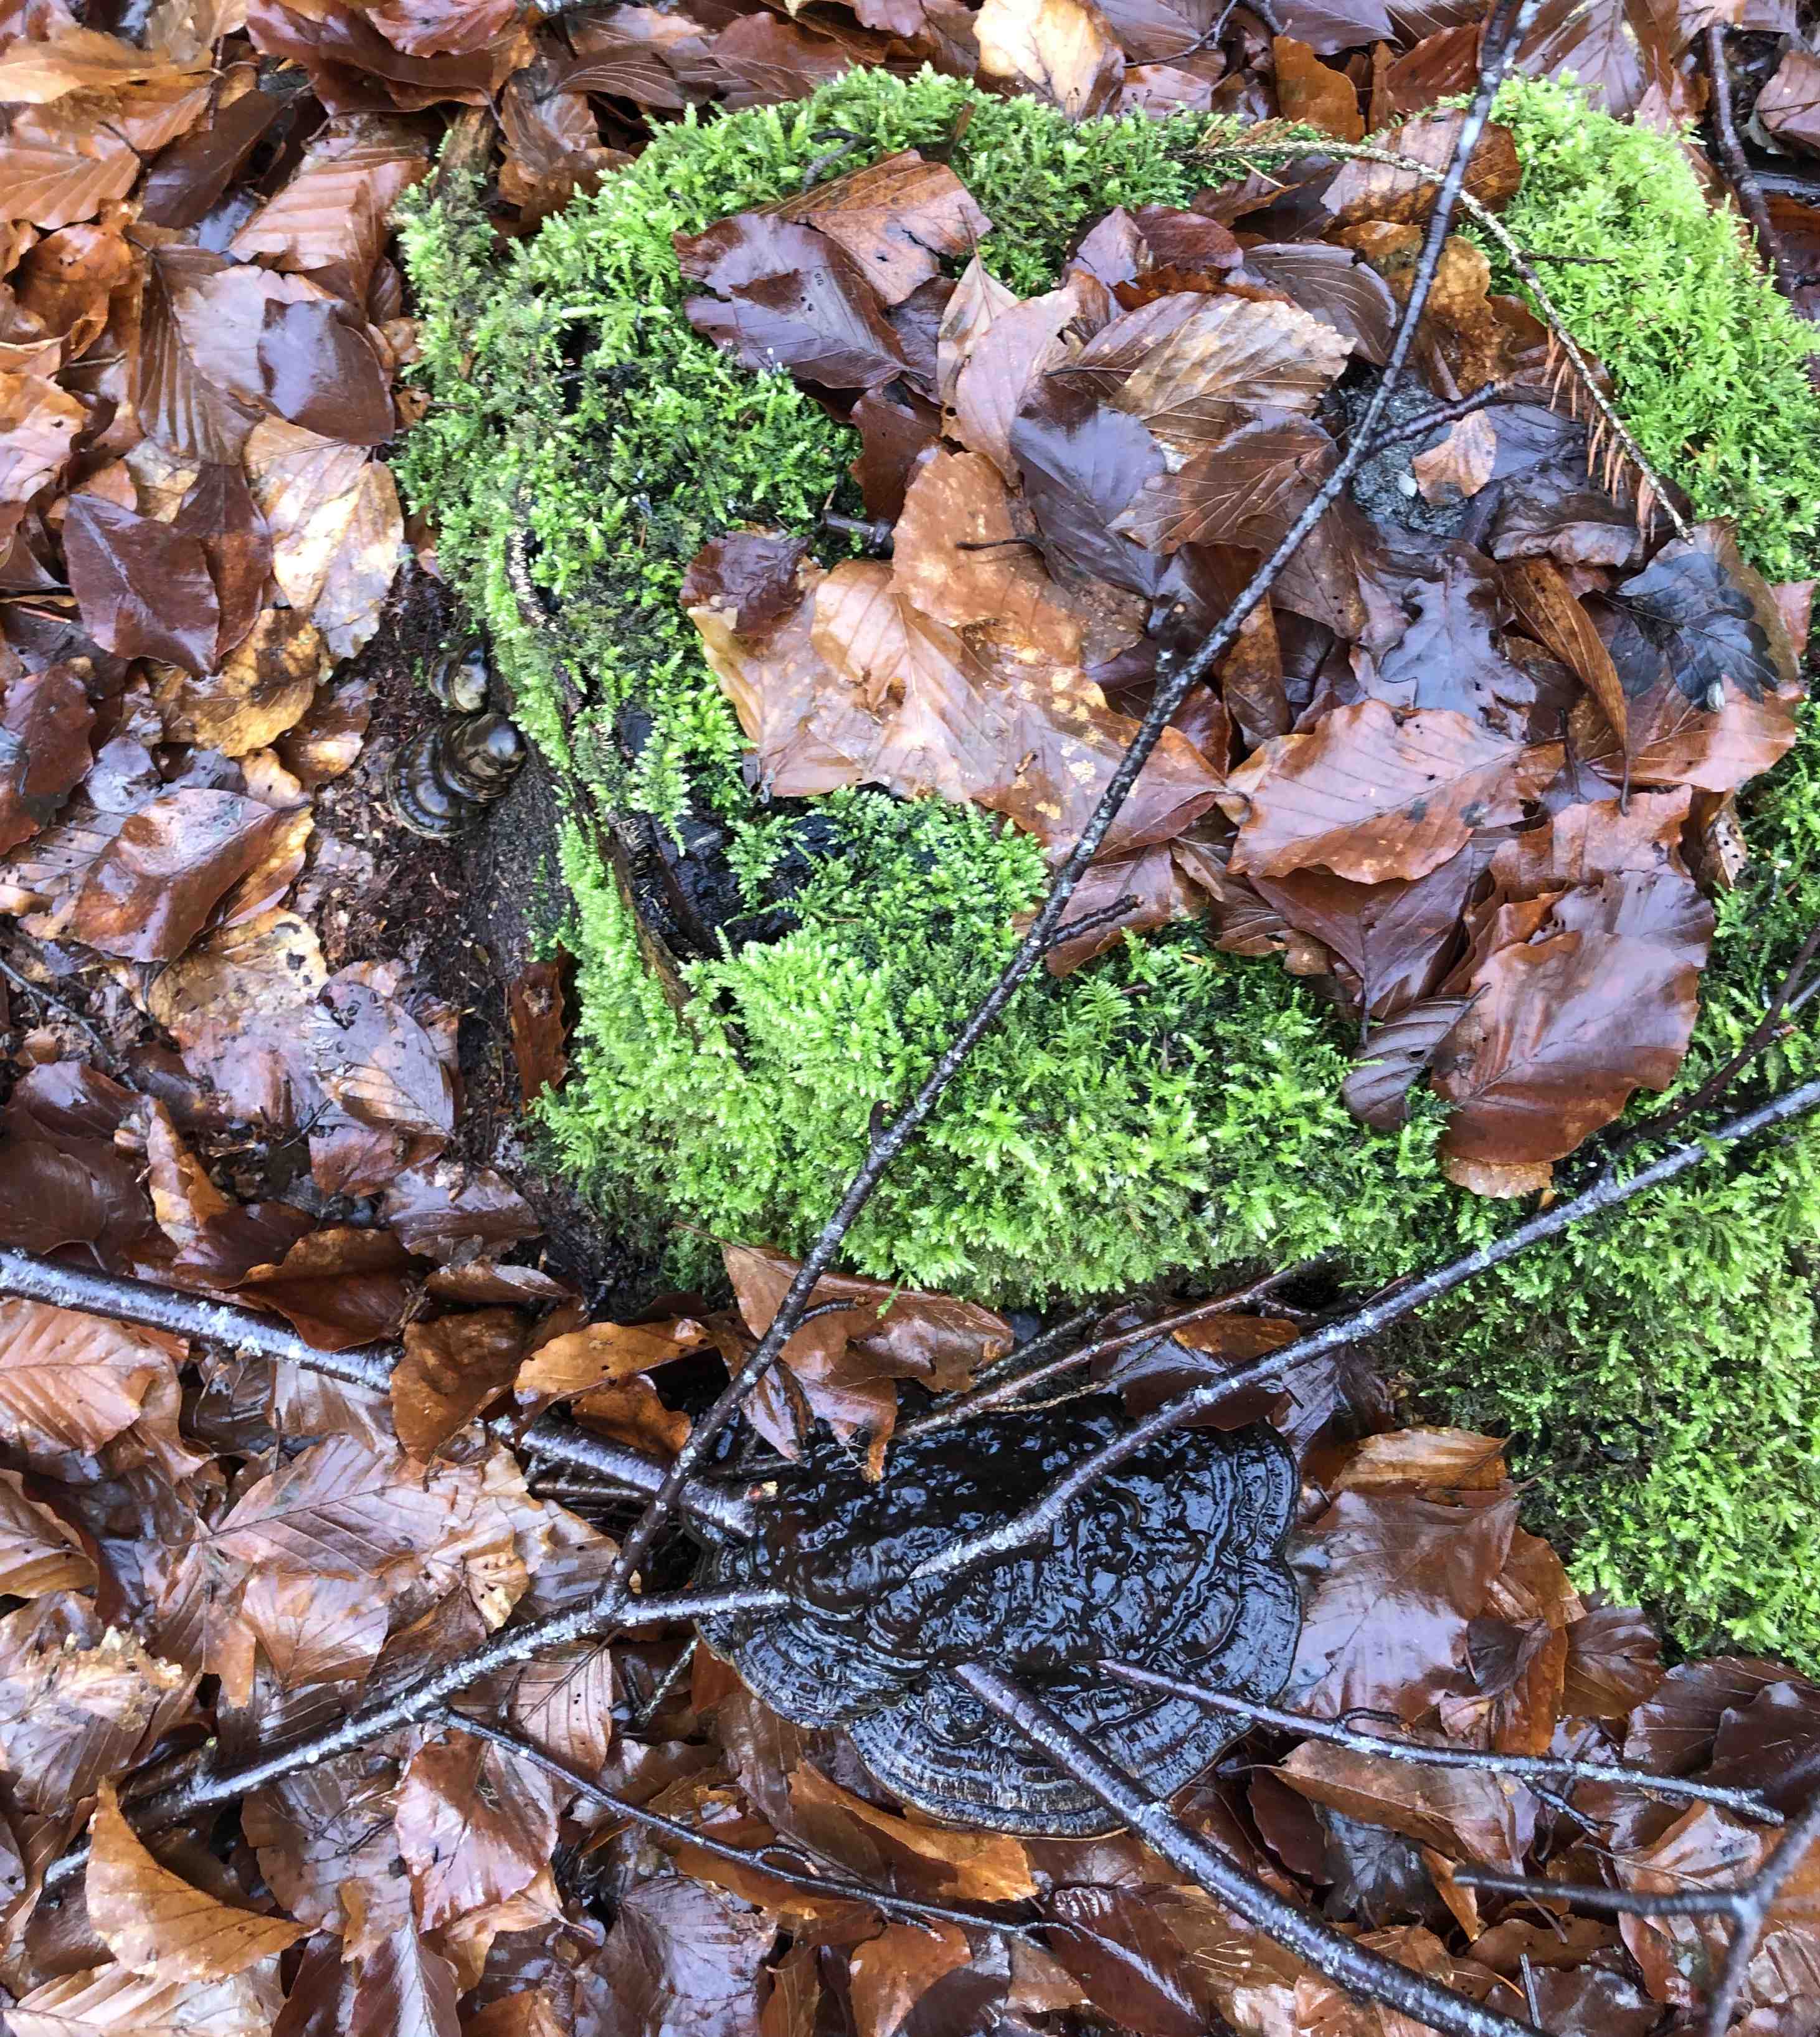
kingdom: Fungi
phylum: Basidiomycota
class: Agaricomycetes
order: Polyporales
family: Polyporaceae
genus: Ganoderma
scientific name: Ganoderma applanatum
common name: flad lakporesvamp
